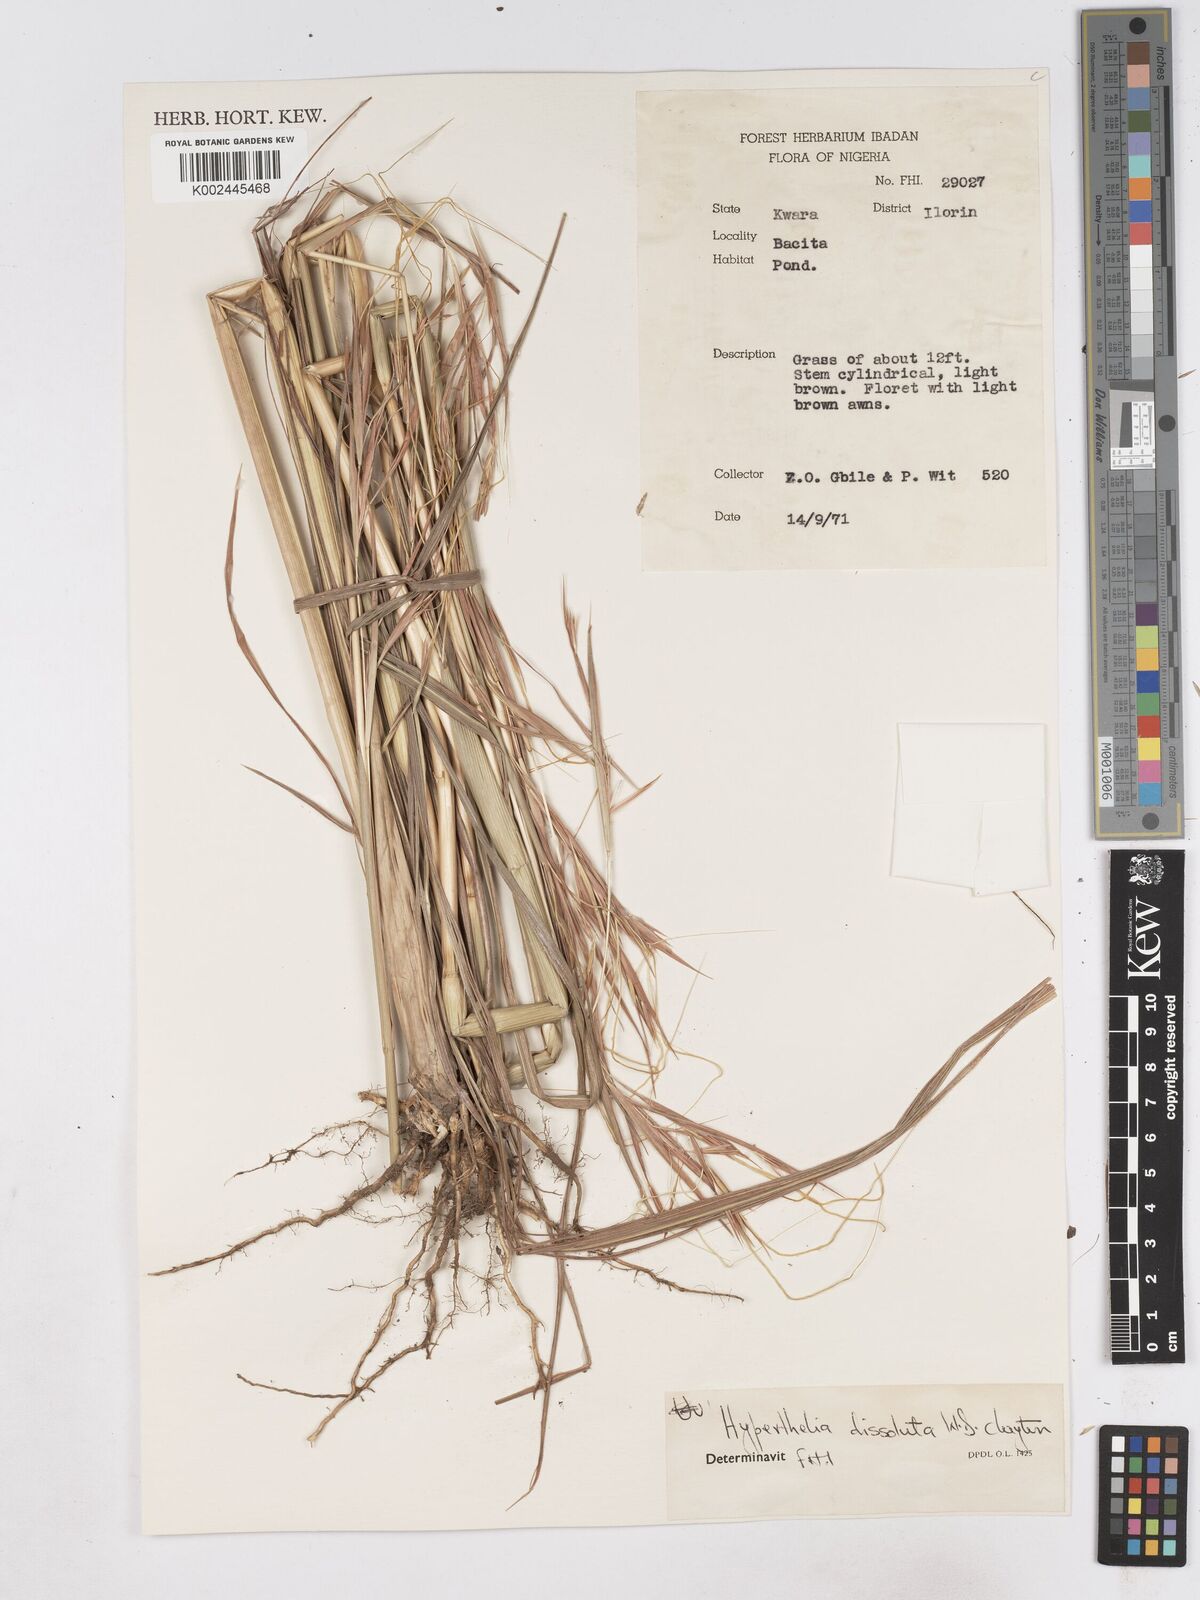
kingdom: Plantae
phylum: Tracheophyta
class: Liliopsida
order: Poales
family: Poaceae
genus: Hyperthelia
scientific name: Hyperthelia dissoluta
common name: Yellow thatching grass
